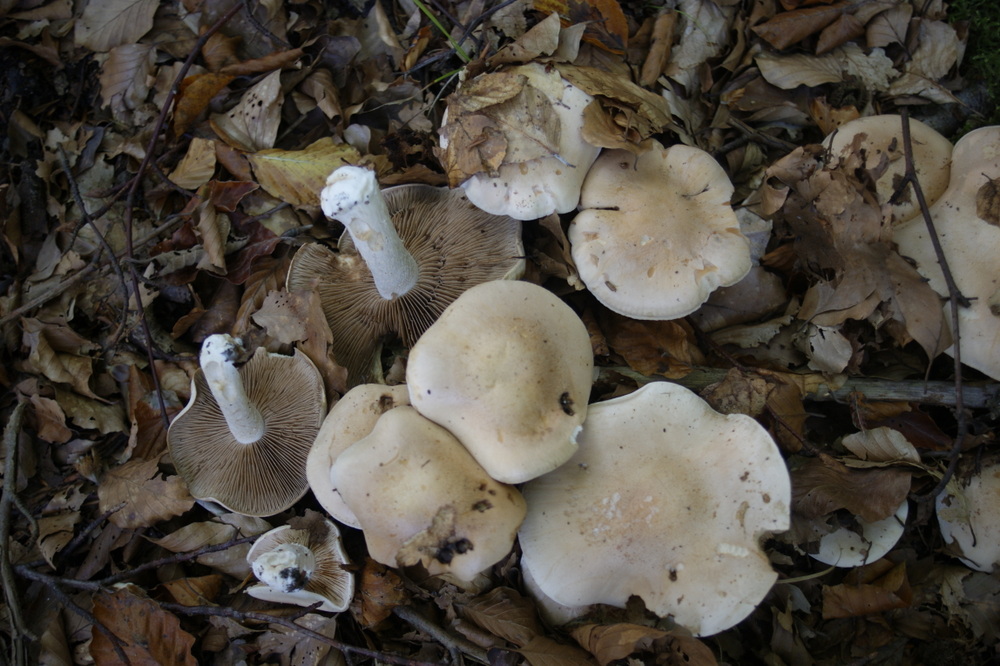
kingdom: Fungi
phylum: Basidiomycota
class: Agaricomycetes
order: Agaricales
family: Hymenogastraceae
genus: Hebeloma
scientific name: Hebeloma sinapizans
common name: ræddike-tåreblad
